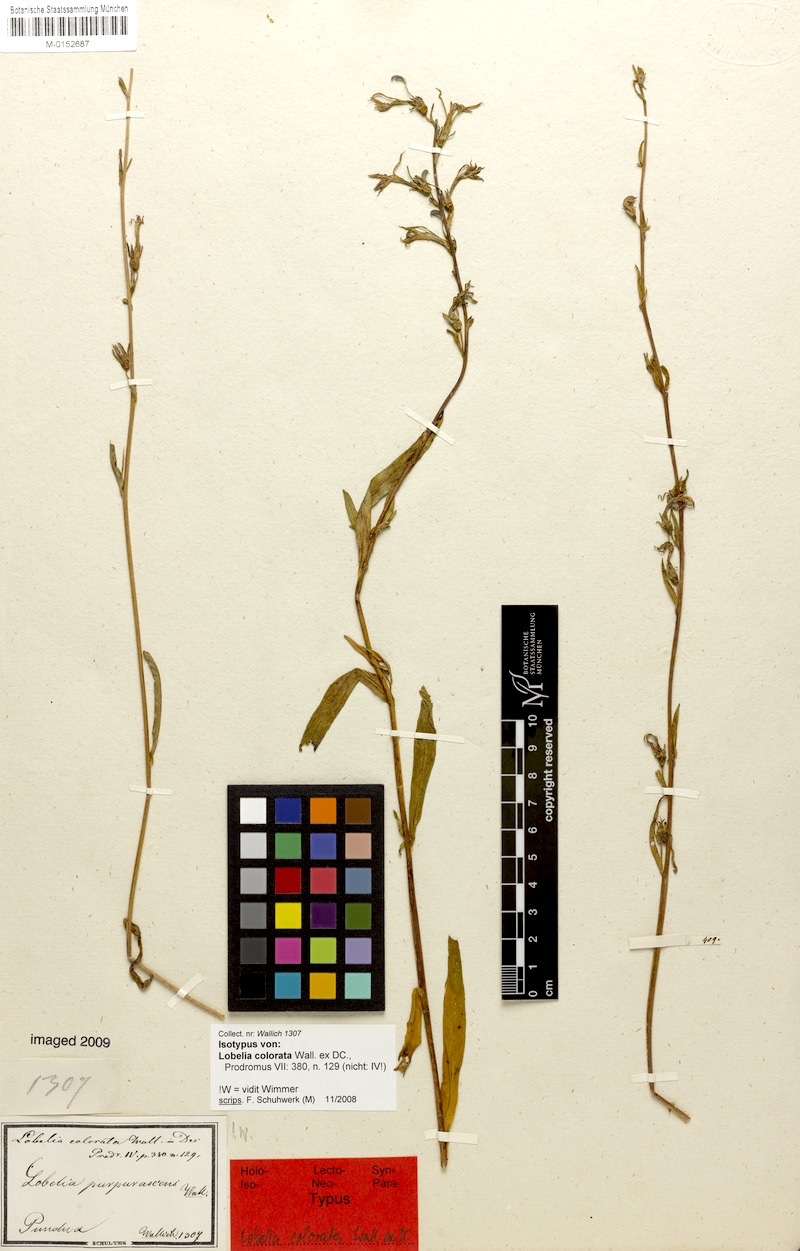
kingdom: Plantae
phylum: Tracheophyta
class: Magnoliopsida
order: Asterales
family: Campanulaceae
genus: Lobelia
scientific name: Lobelia nicotianifolia
